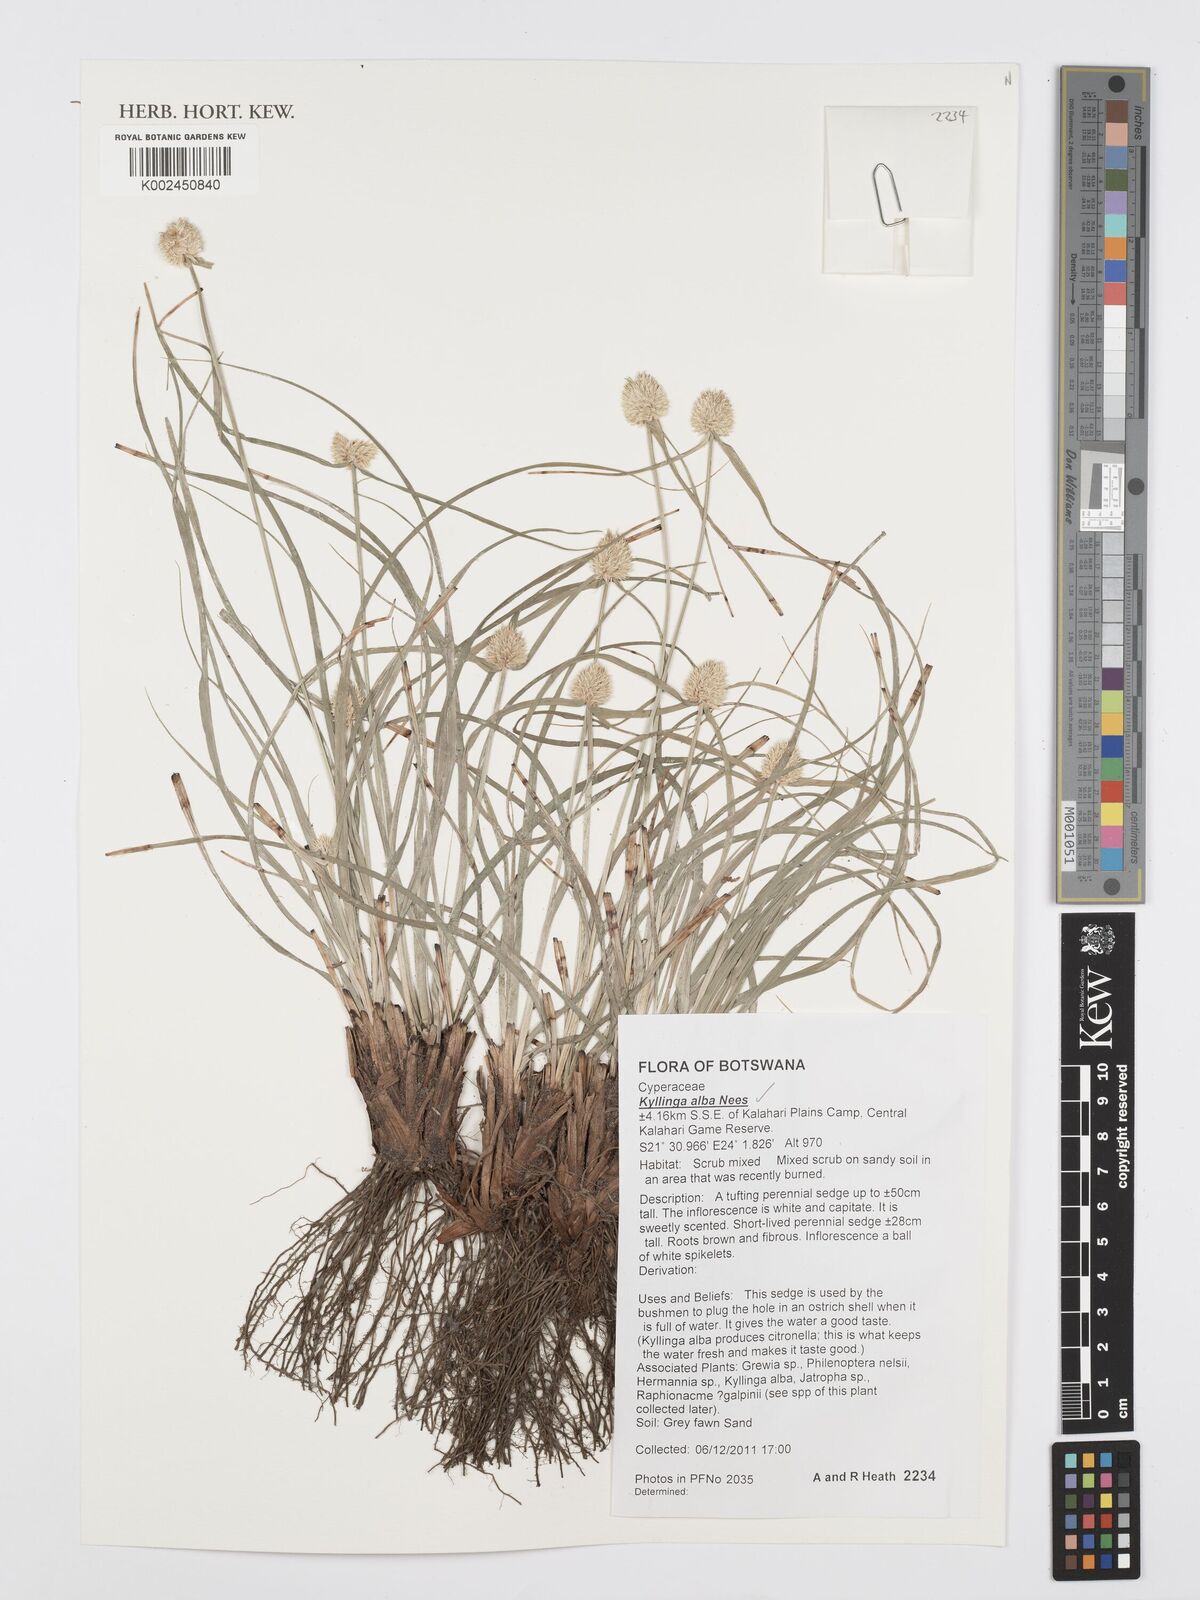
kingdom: Plantae
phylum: Tracheophyta
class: Liliopsida
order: Poales
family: Cyperaceae
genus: Cyperus
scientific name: Cyperus
